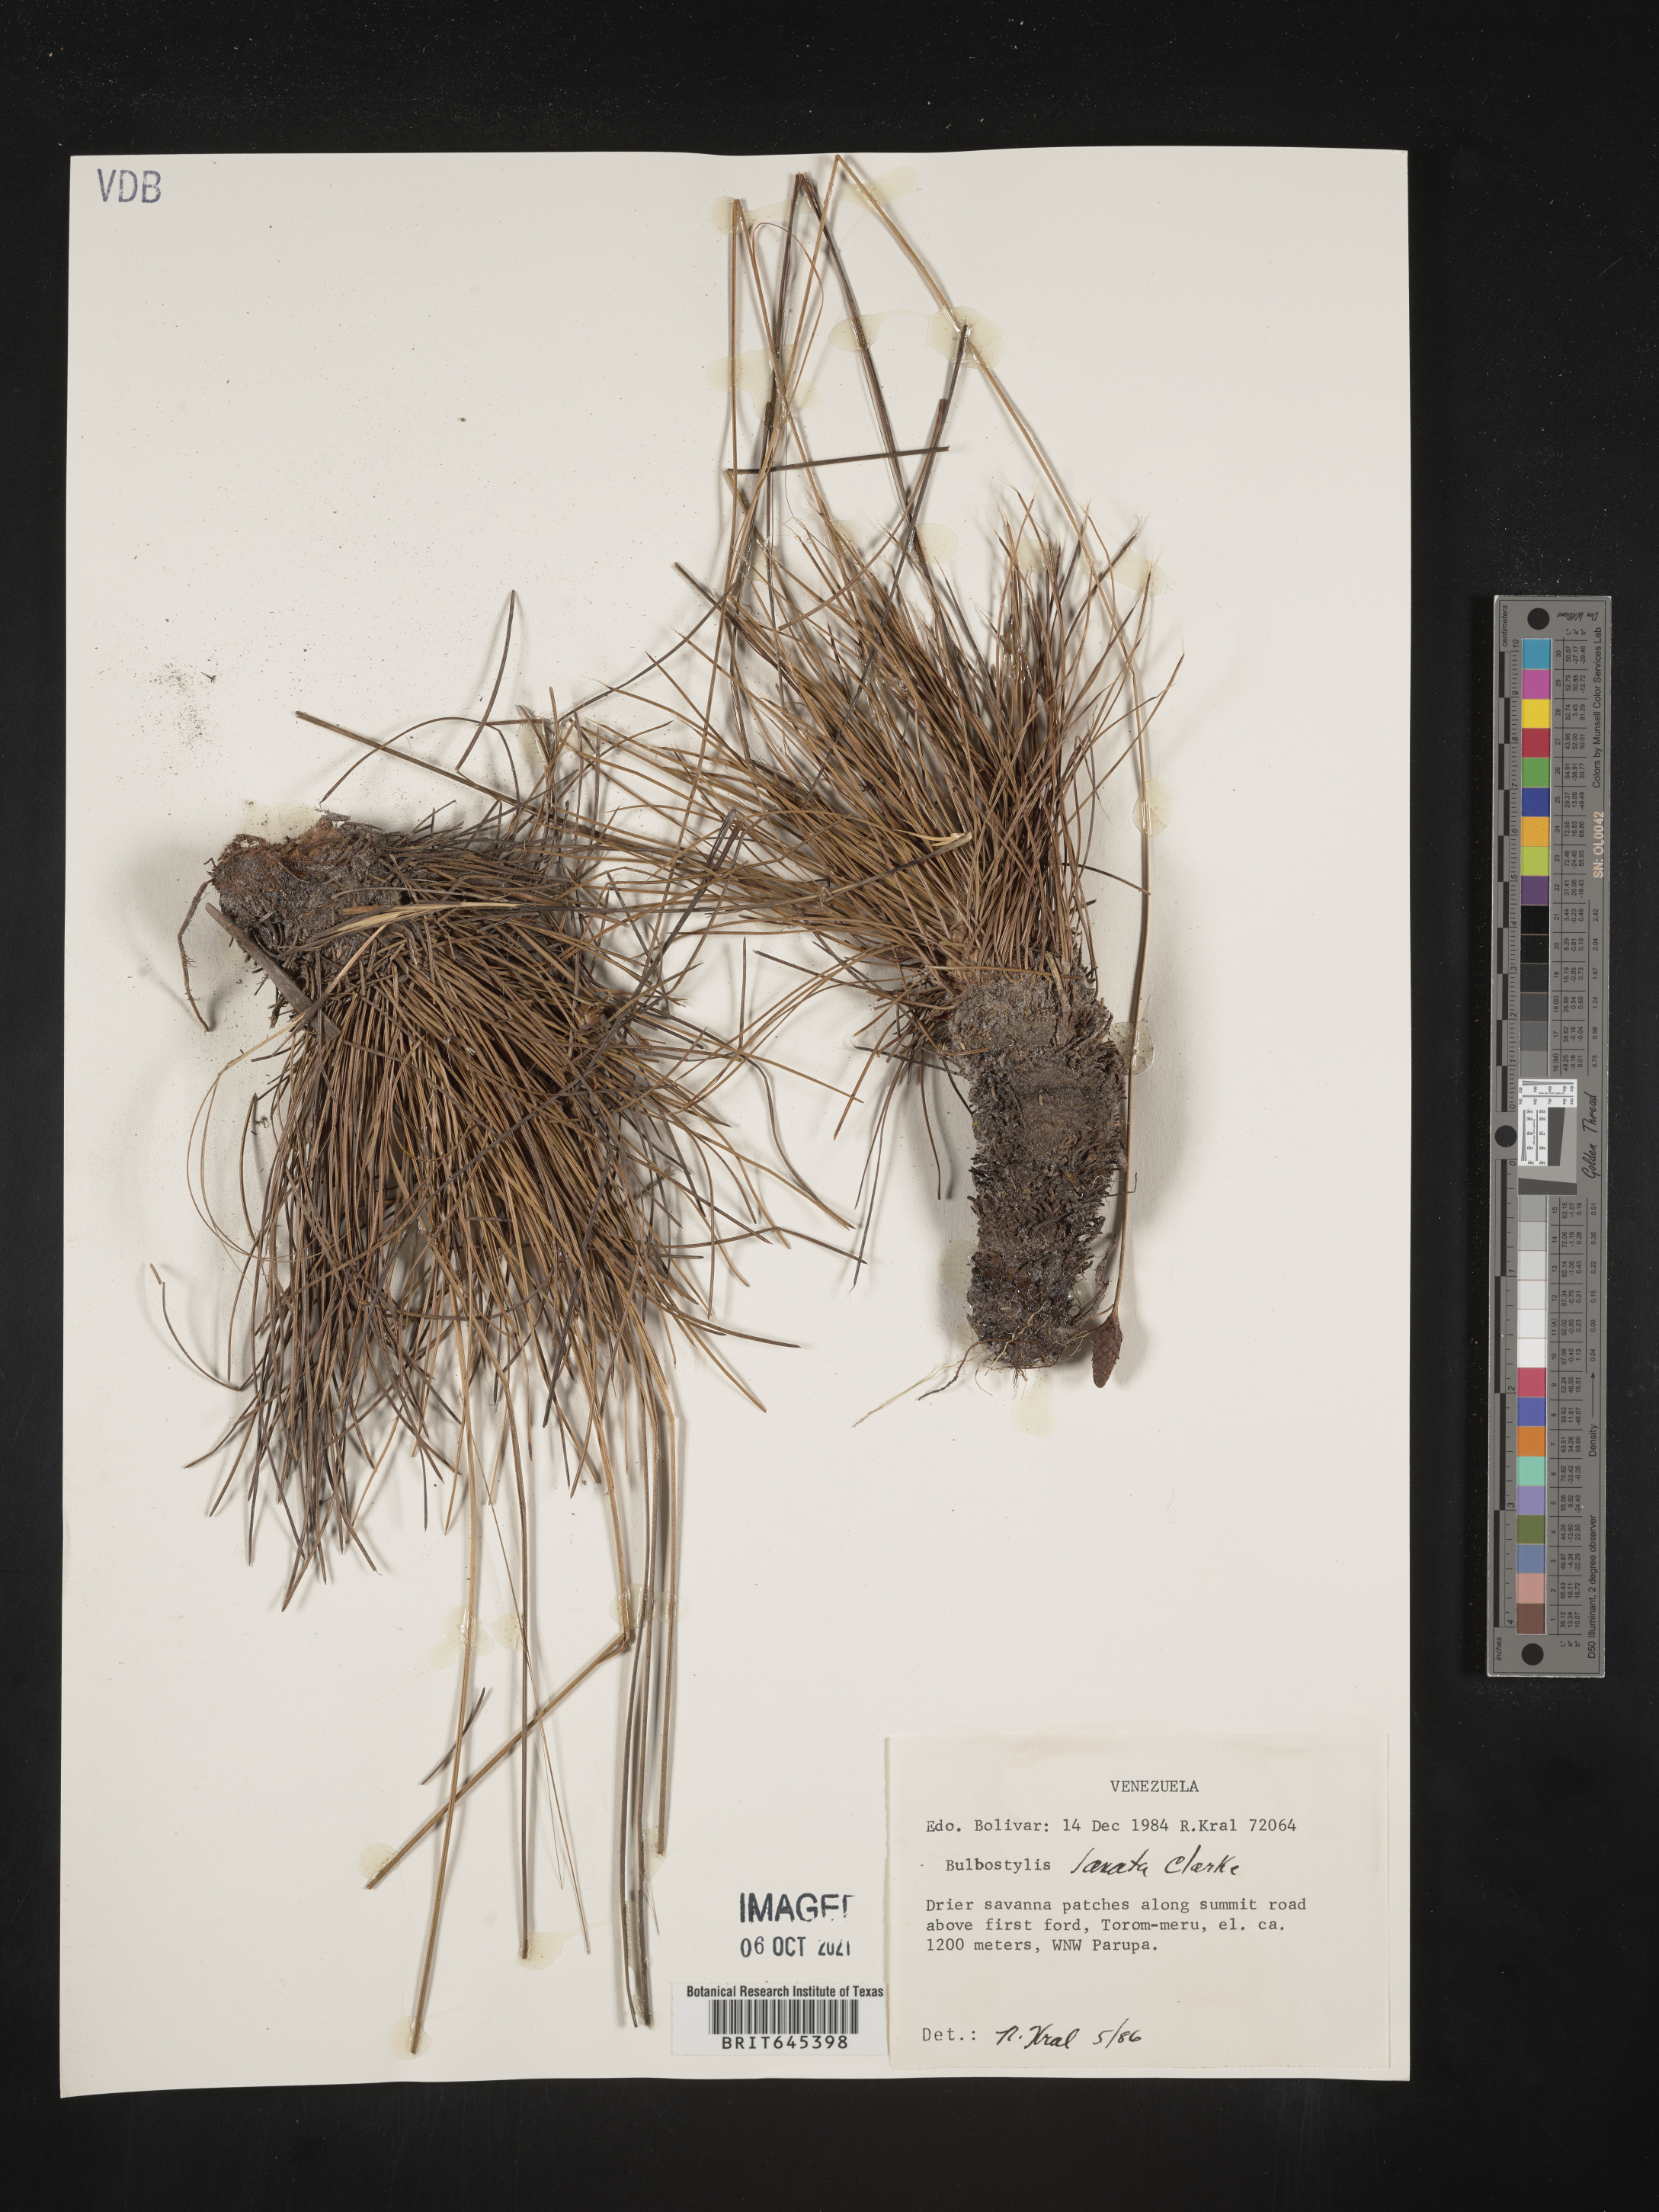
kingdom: Plantae
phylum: Tracheophyta
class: Liliopsida
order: Poales
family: Cyperaceae
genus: Bulbostylis
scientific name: Bulbostylis lanata
